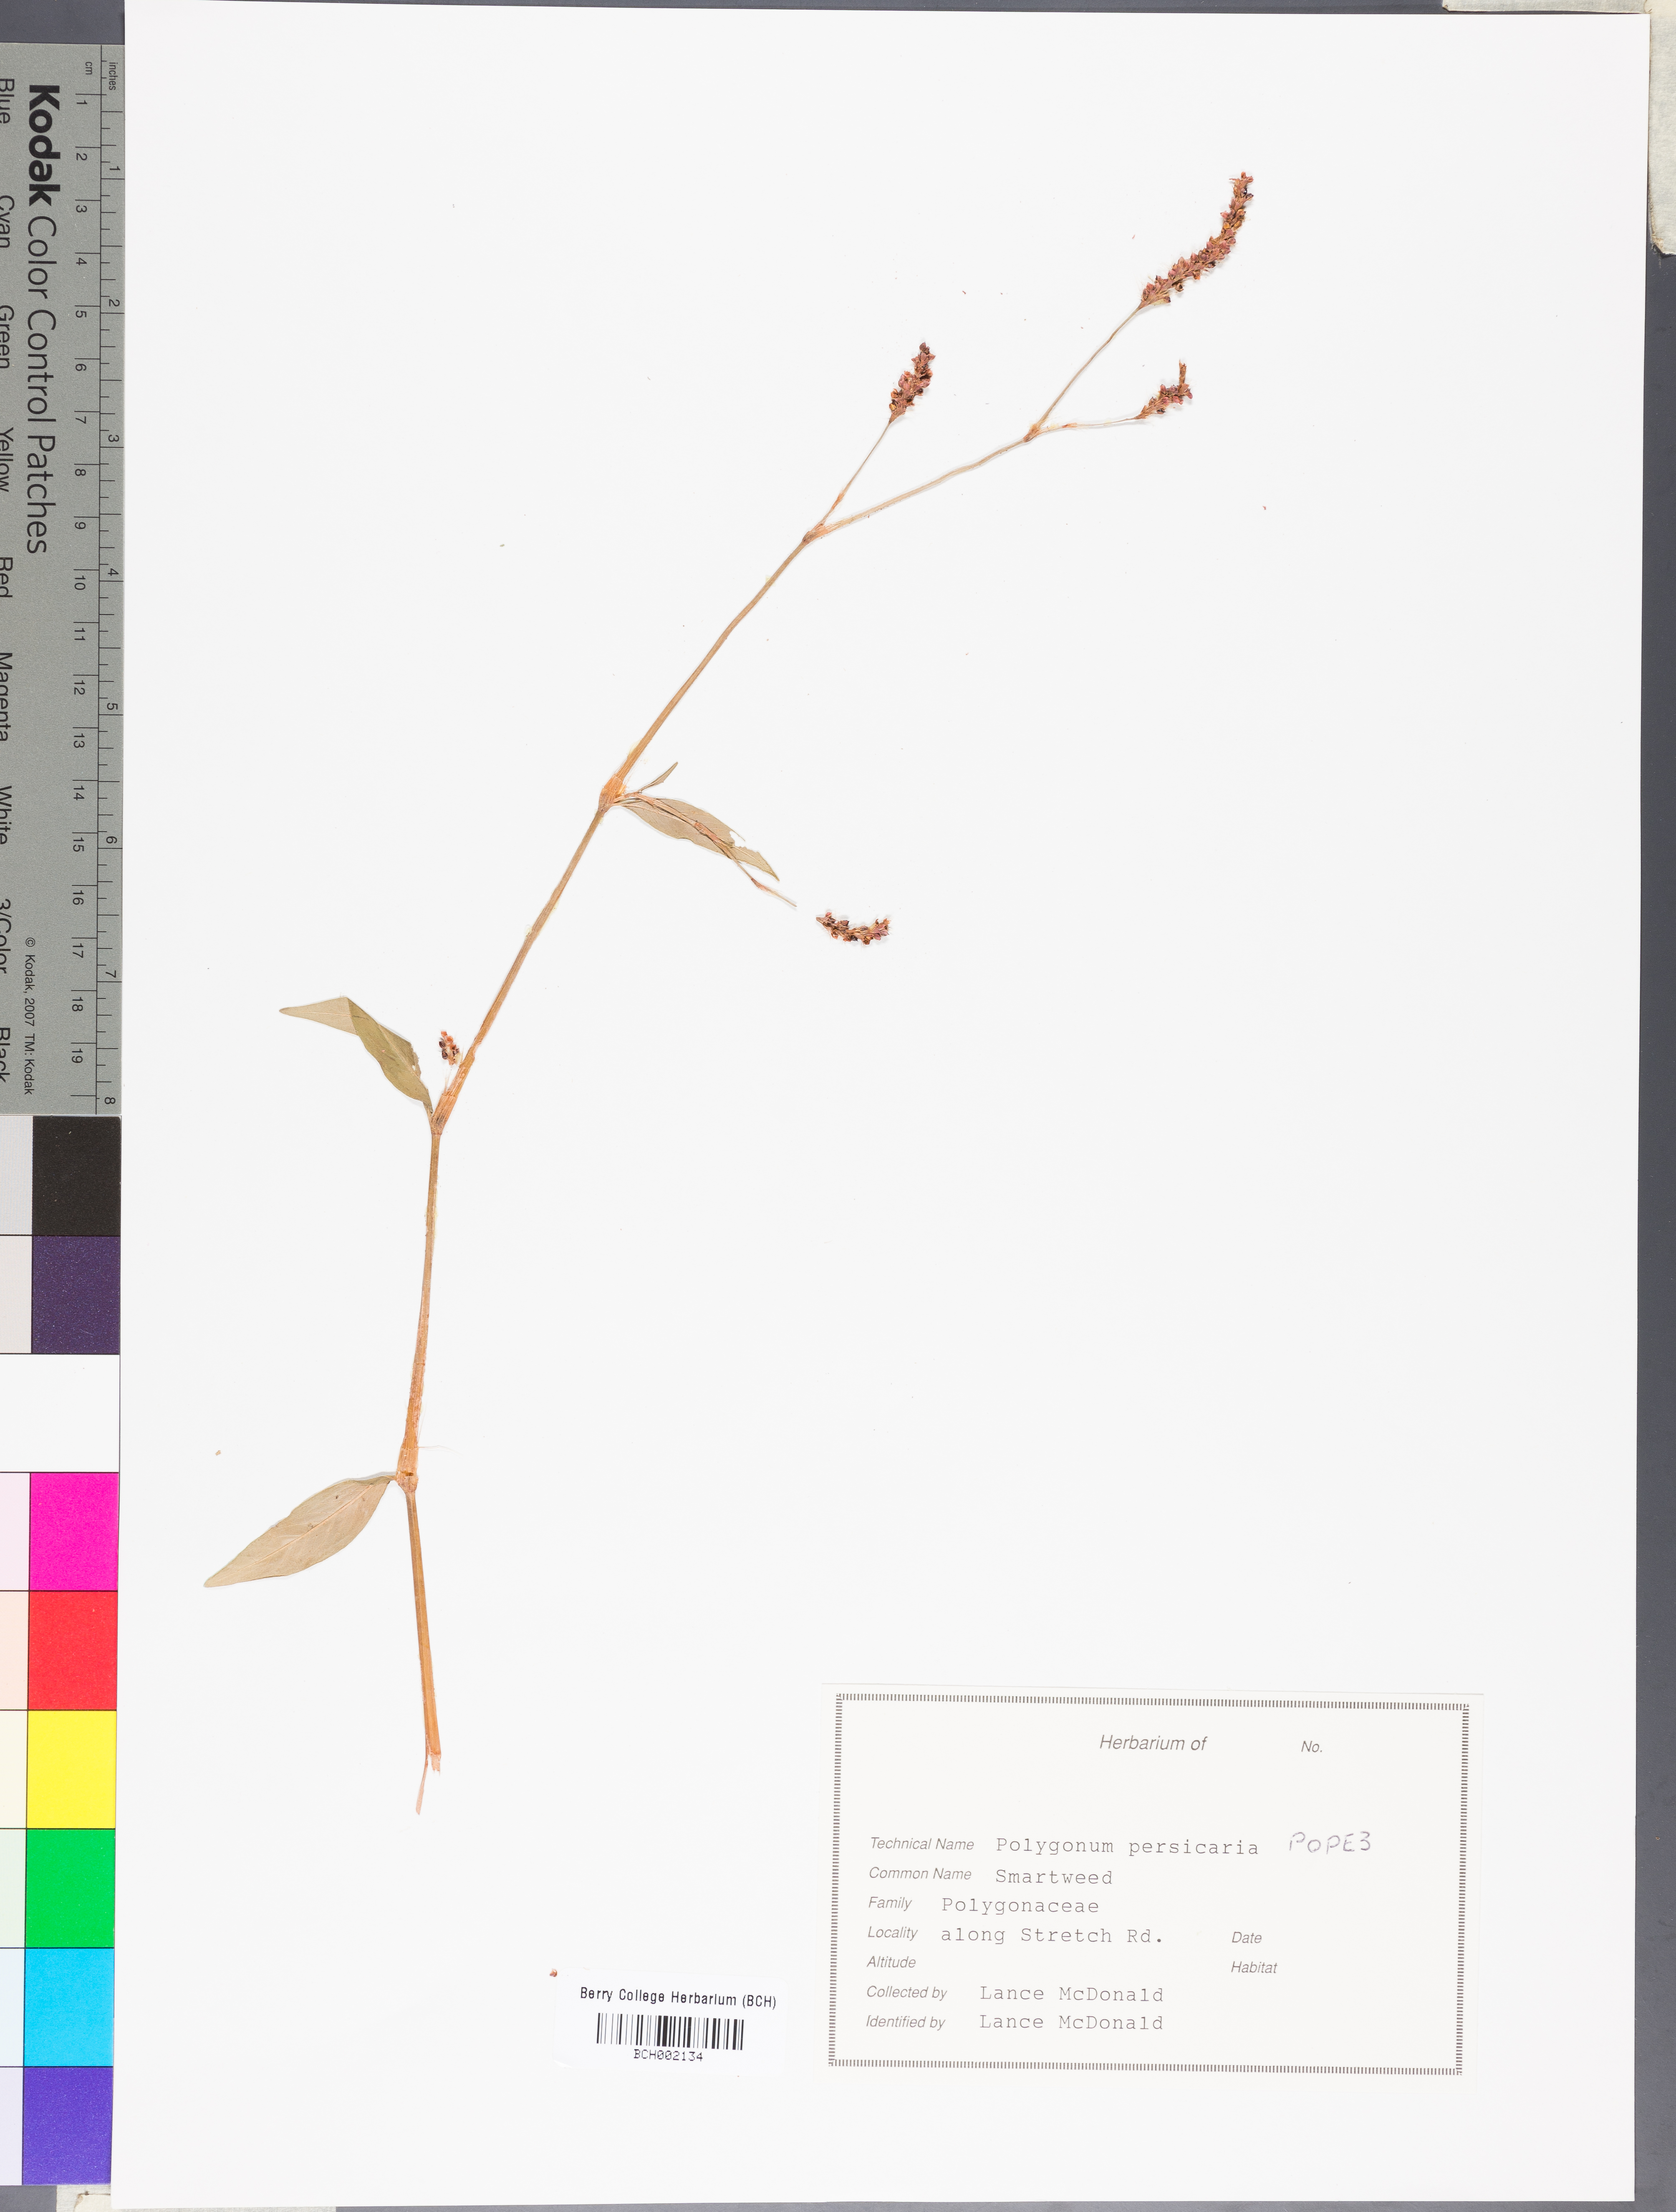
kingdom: Plantae
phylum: Tracheophyta
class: Magnoliopsida
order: Caryophyllales
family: Polygonaceae
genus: Persicaria
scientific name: Persicaria maculosa
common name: Redshank
